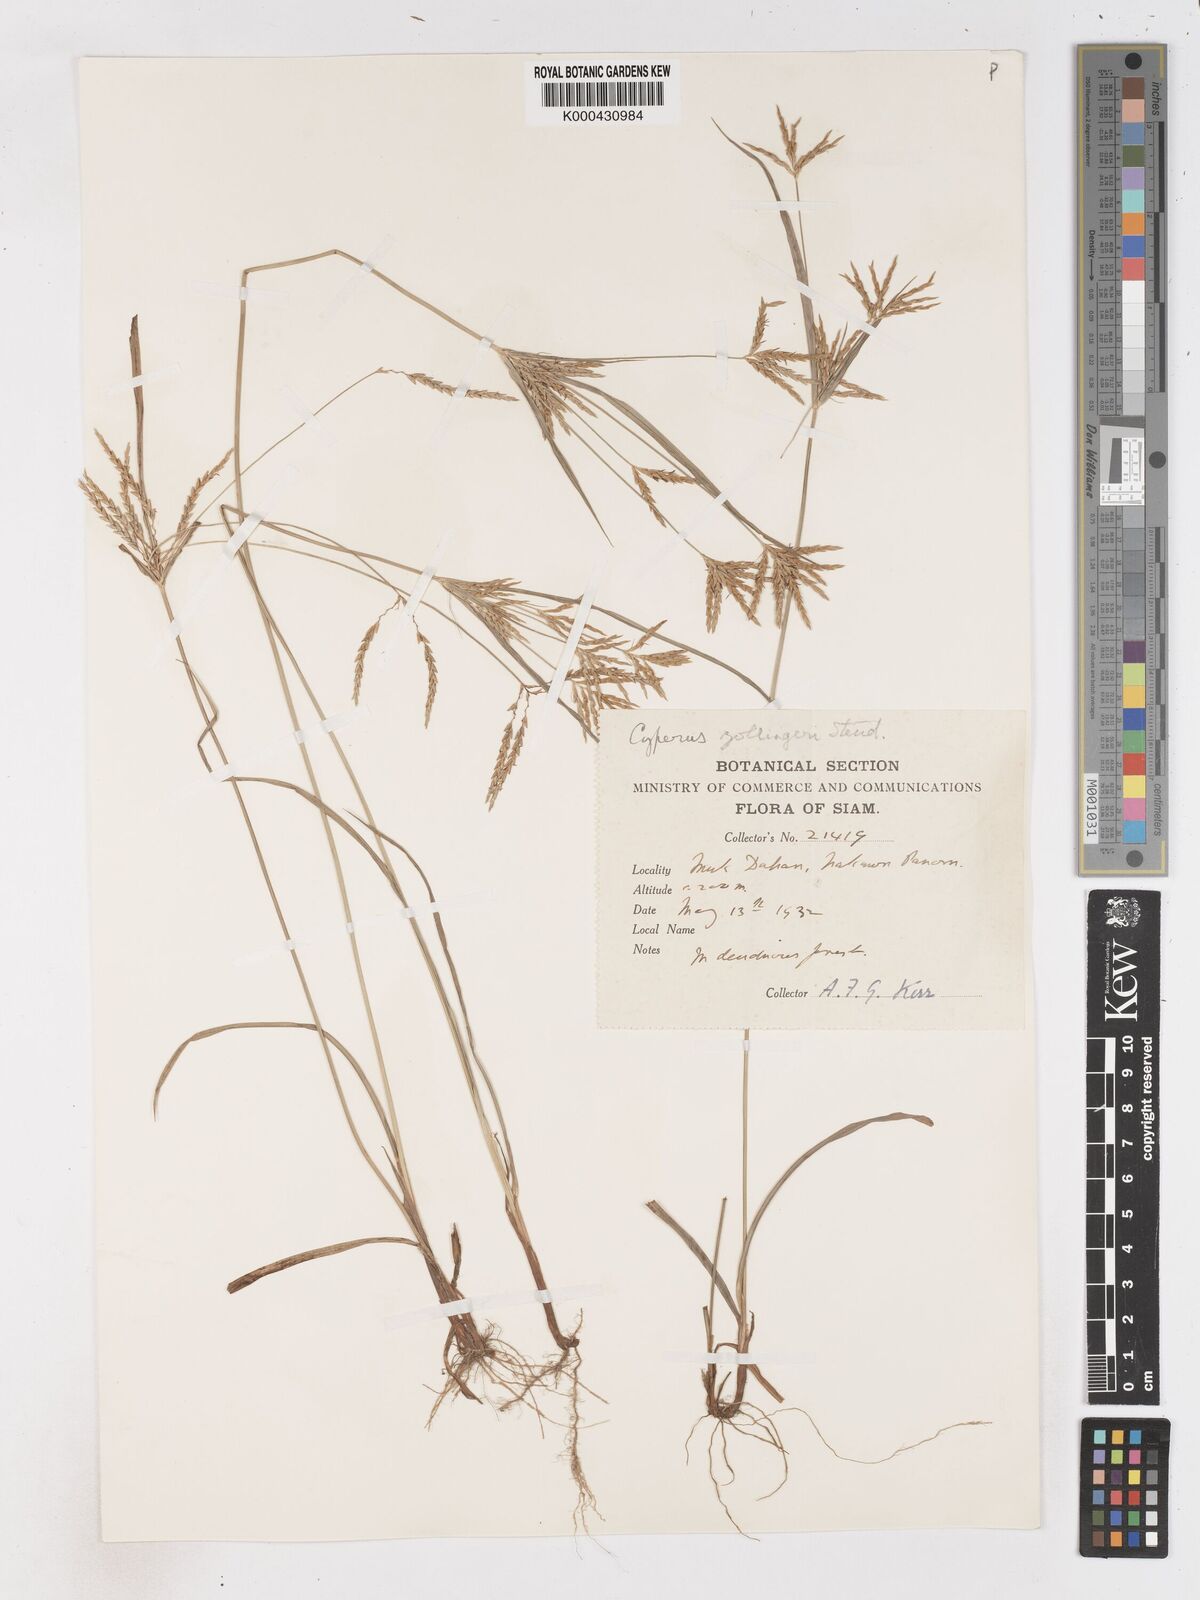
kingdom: Plantae
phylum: Tracheophyta
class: Liliopsida
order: Poales
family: Cyperaceae
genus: Cyperus
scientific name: Cyperus tenuiculmis
